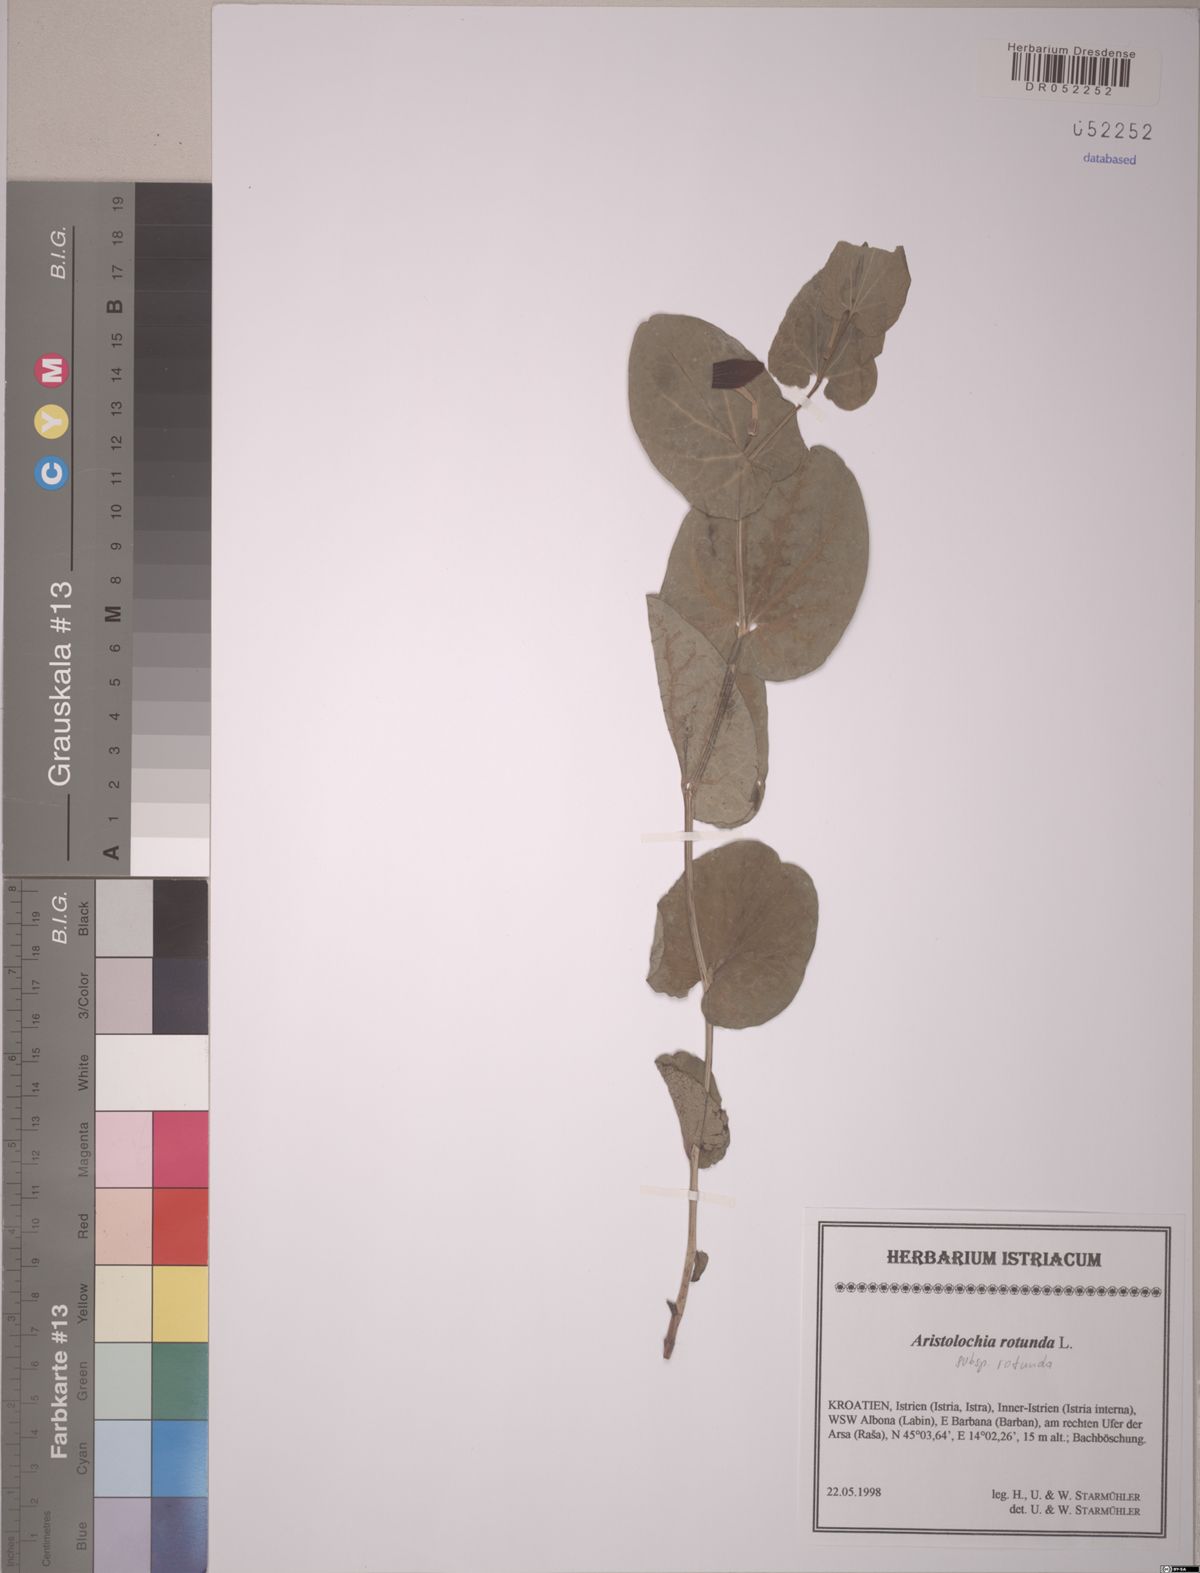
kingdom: Plantae
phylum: Tracheophyta
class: Magnoliopsida
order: Piperales
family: Aristolochiaceae
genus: Aristolochia
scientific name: Aristolochia rotunda
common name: Smearwort
